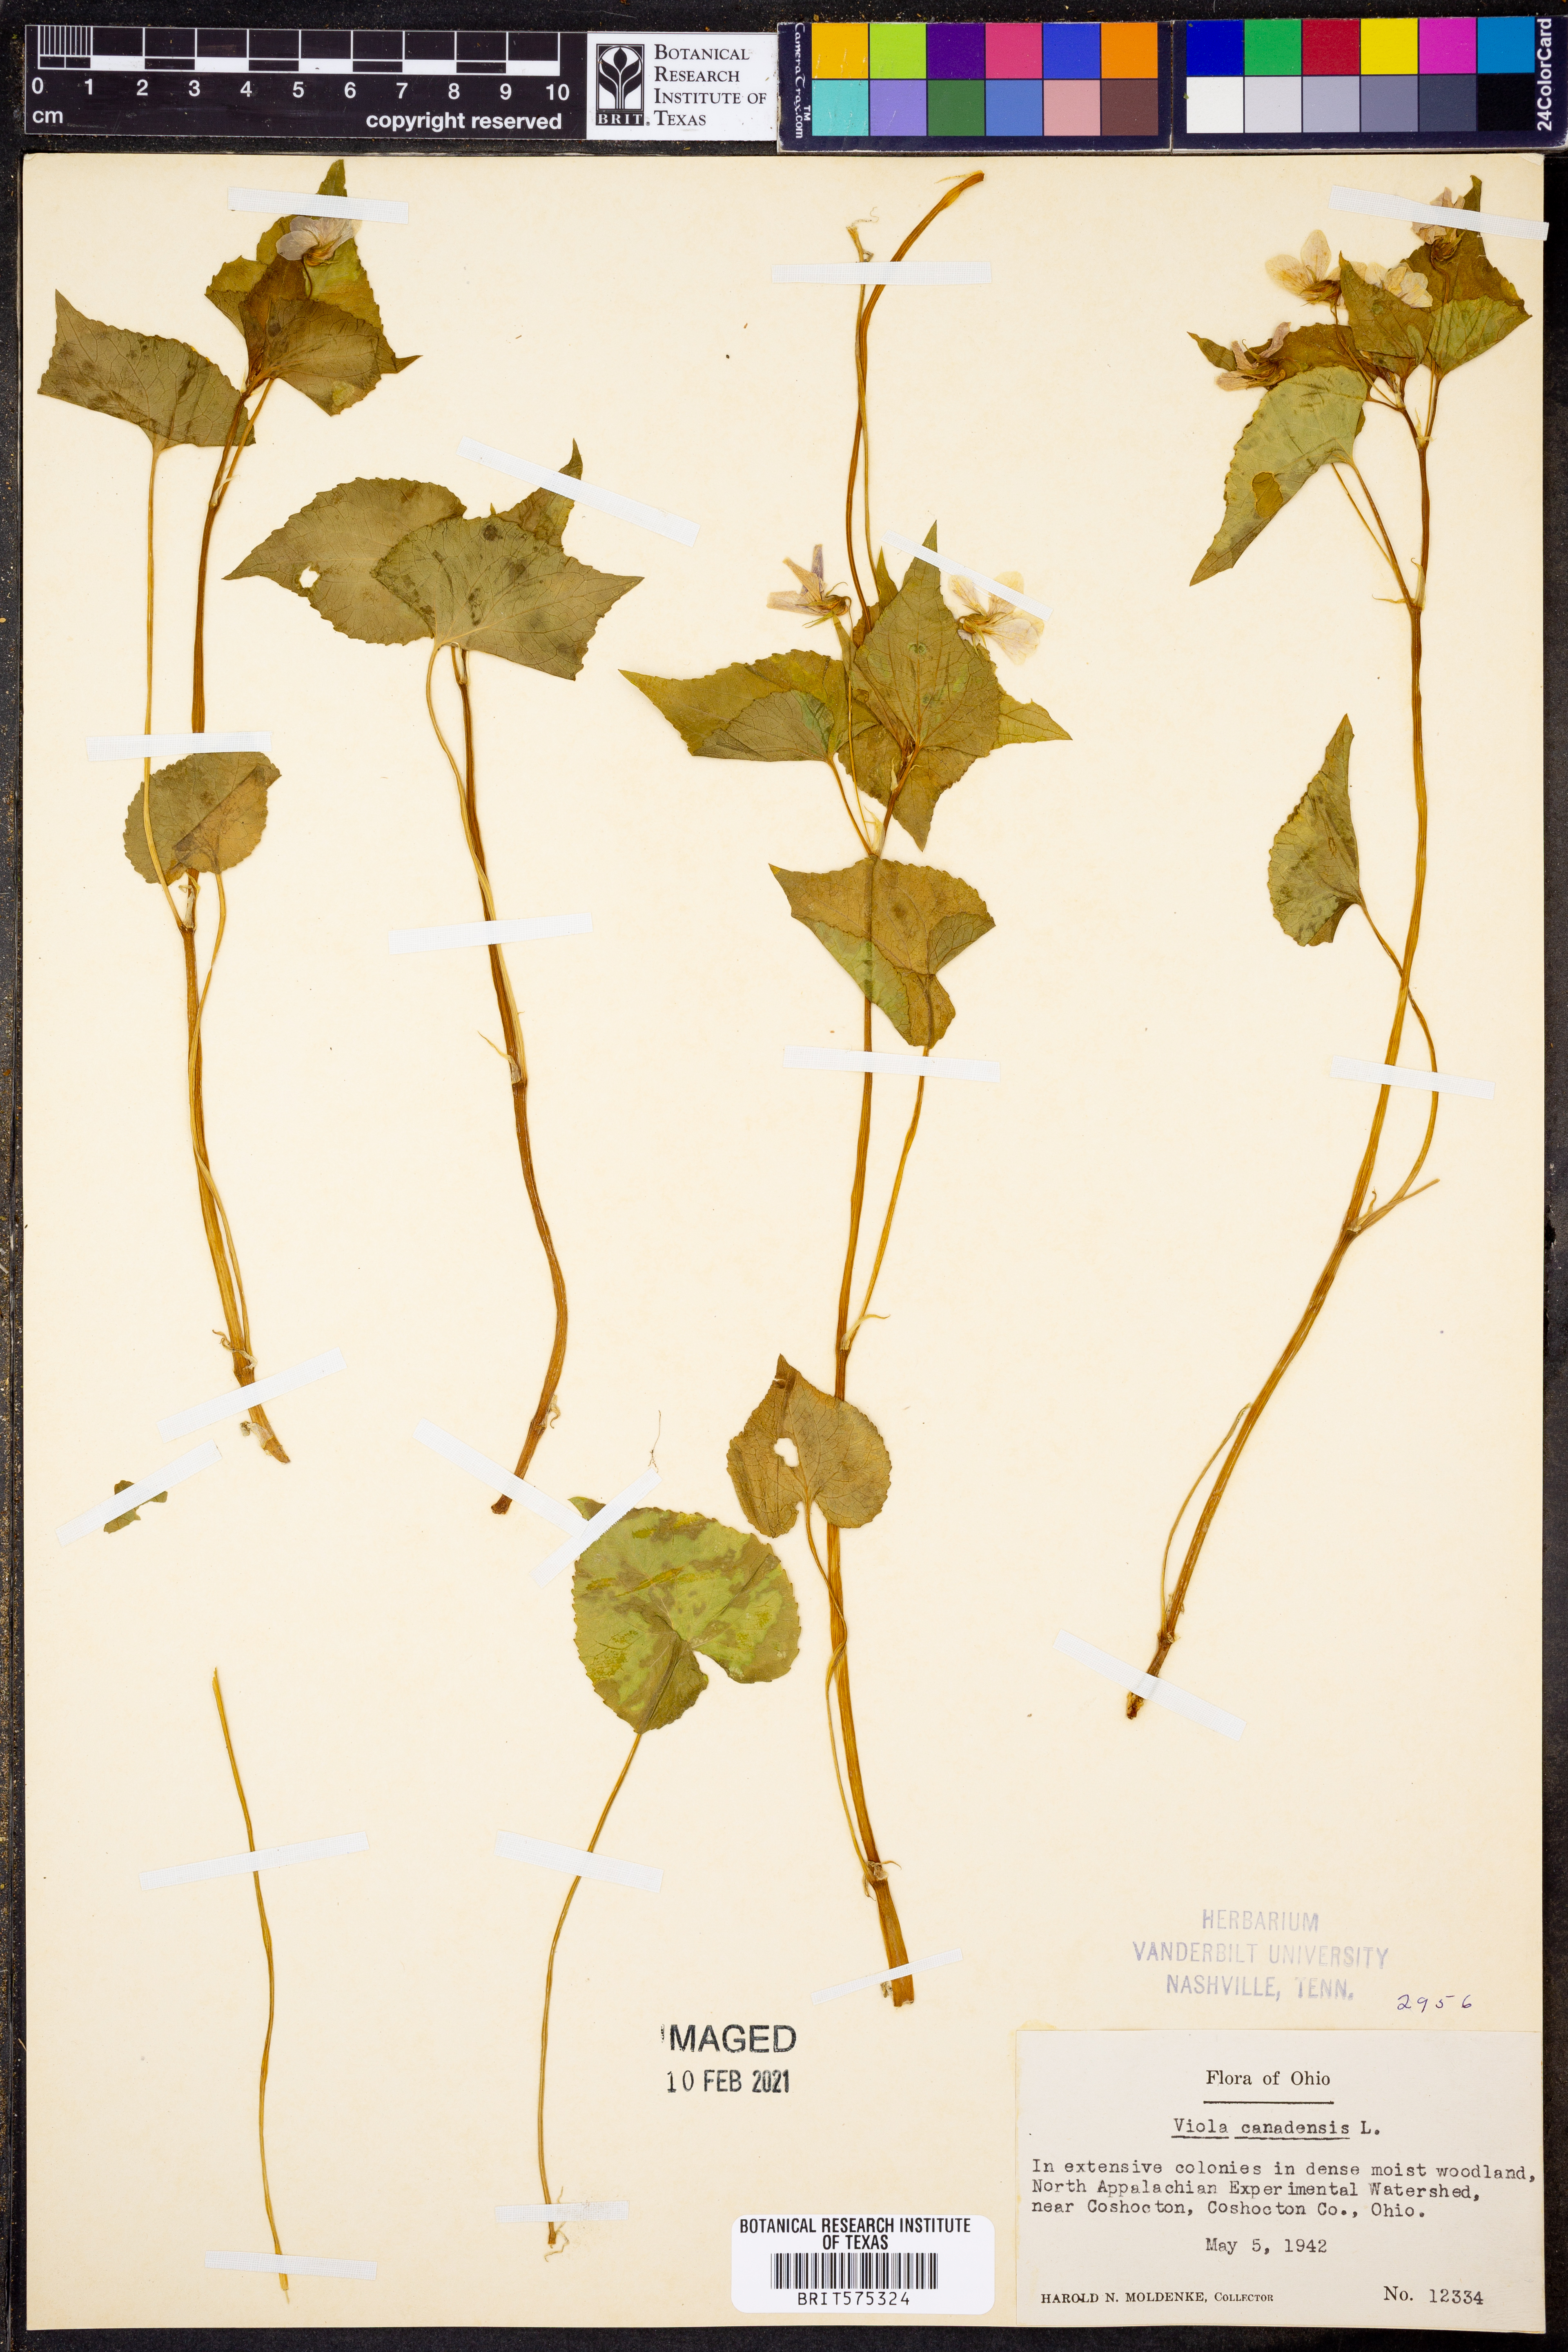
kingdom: Plantae
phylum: Tracheophyta
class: Magnoliopsida
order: Malpighiales
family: Violaceae
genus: Viola
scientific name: Viola canadensis
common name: Canada violet
